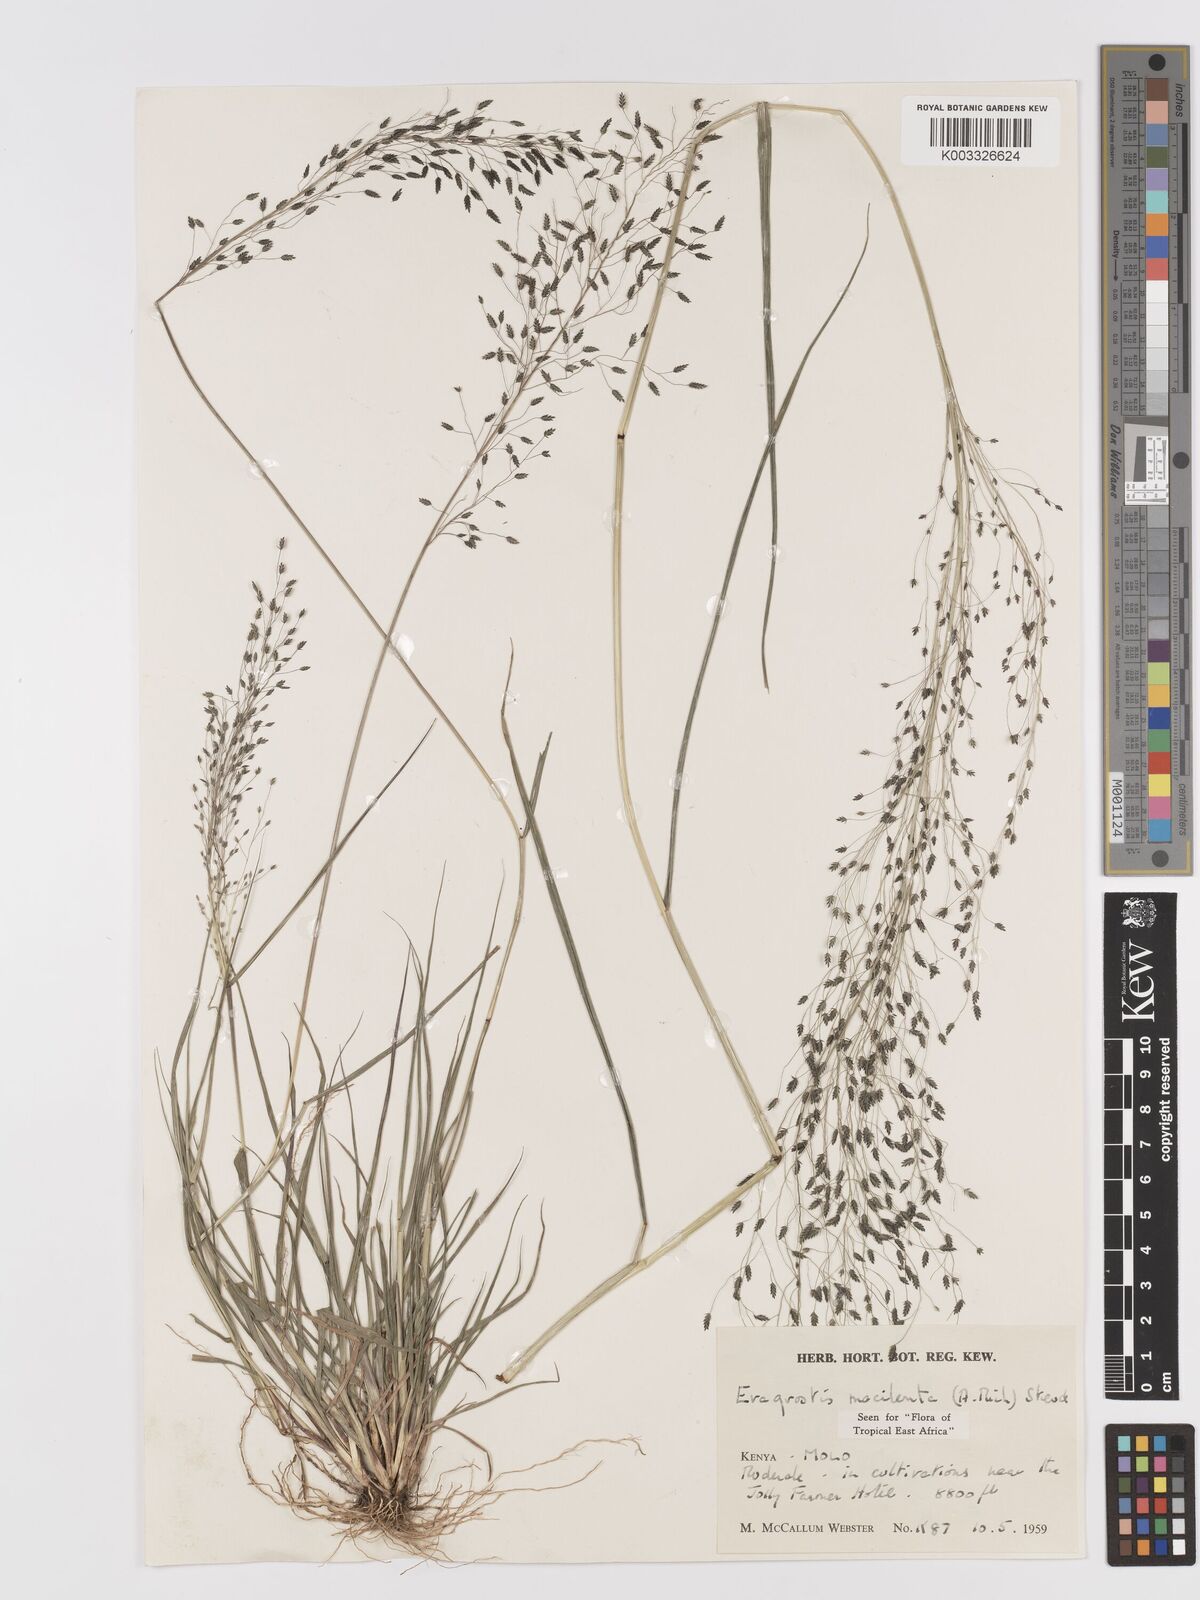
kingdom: Plantae
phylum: Tracheophyta
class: Liliopsida
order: Poales
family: Poaceae
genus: Eragrostis
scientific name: Eragrostis macilenta
